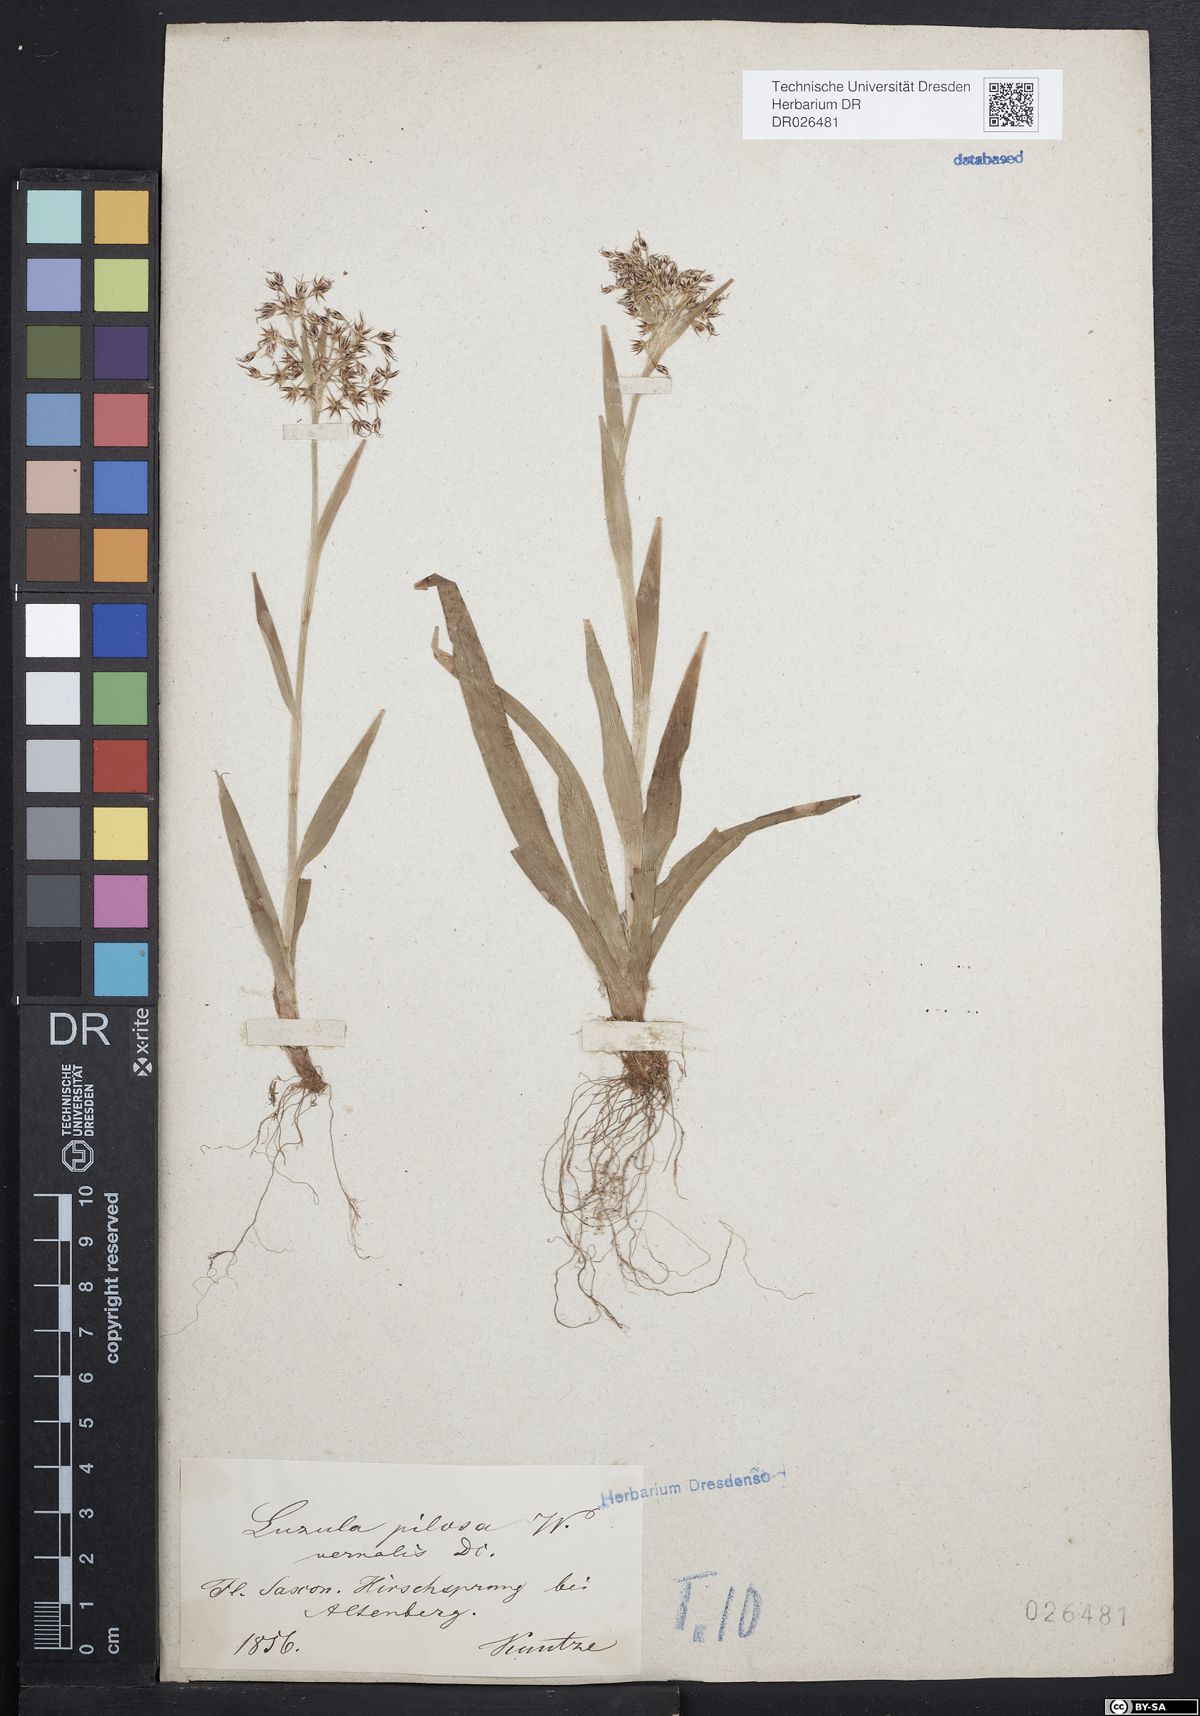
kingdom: Plantae
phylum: Tracheophyta
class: Liliopsida
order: Poales
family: Juncaceae
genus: Luzula
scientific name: Luzula pilosa
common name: Hairy wood-rush
